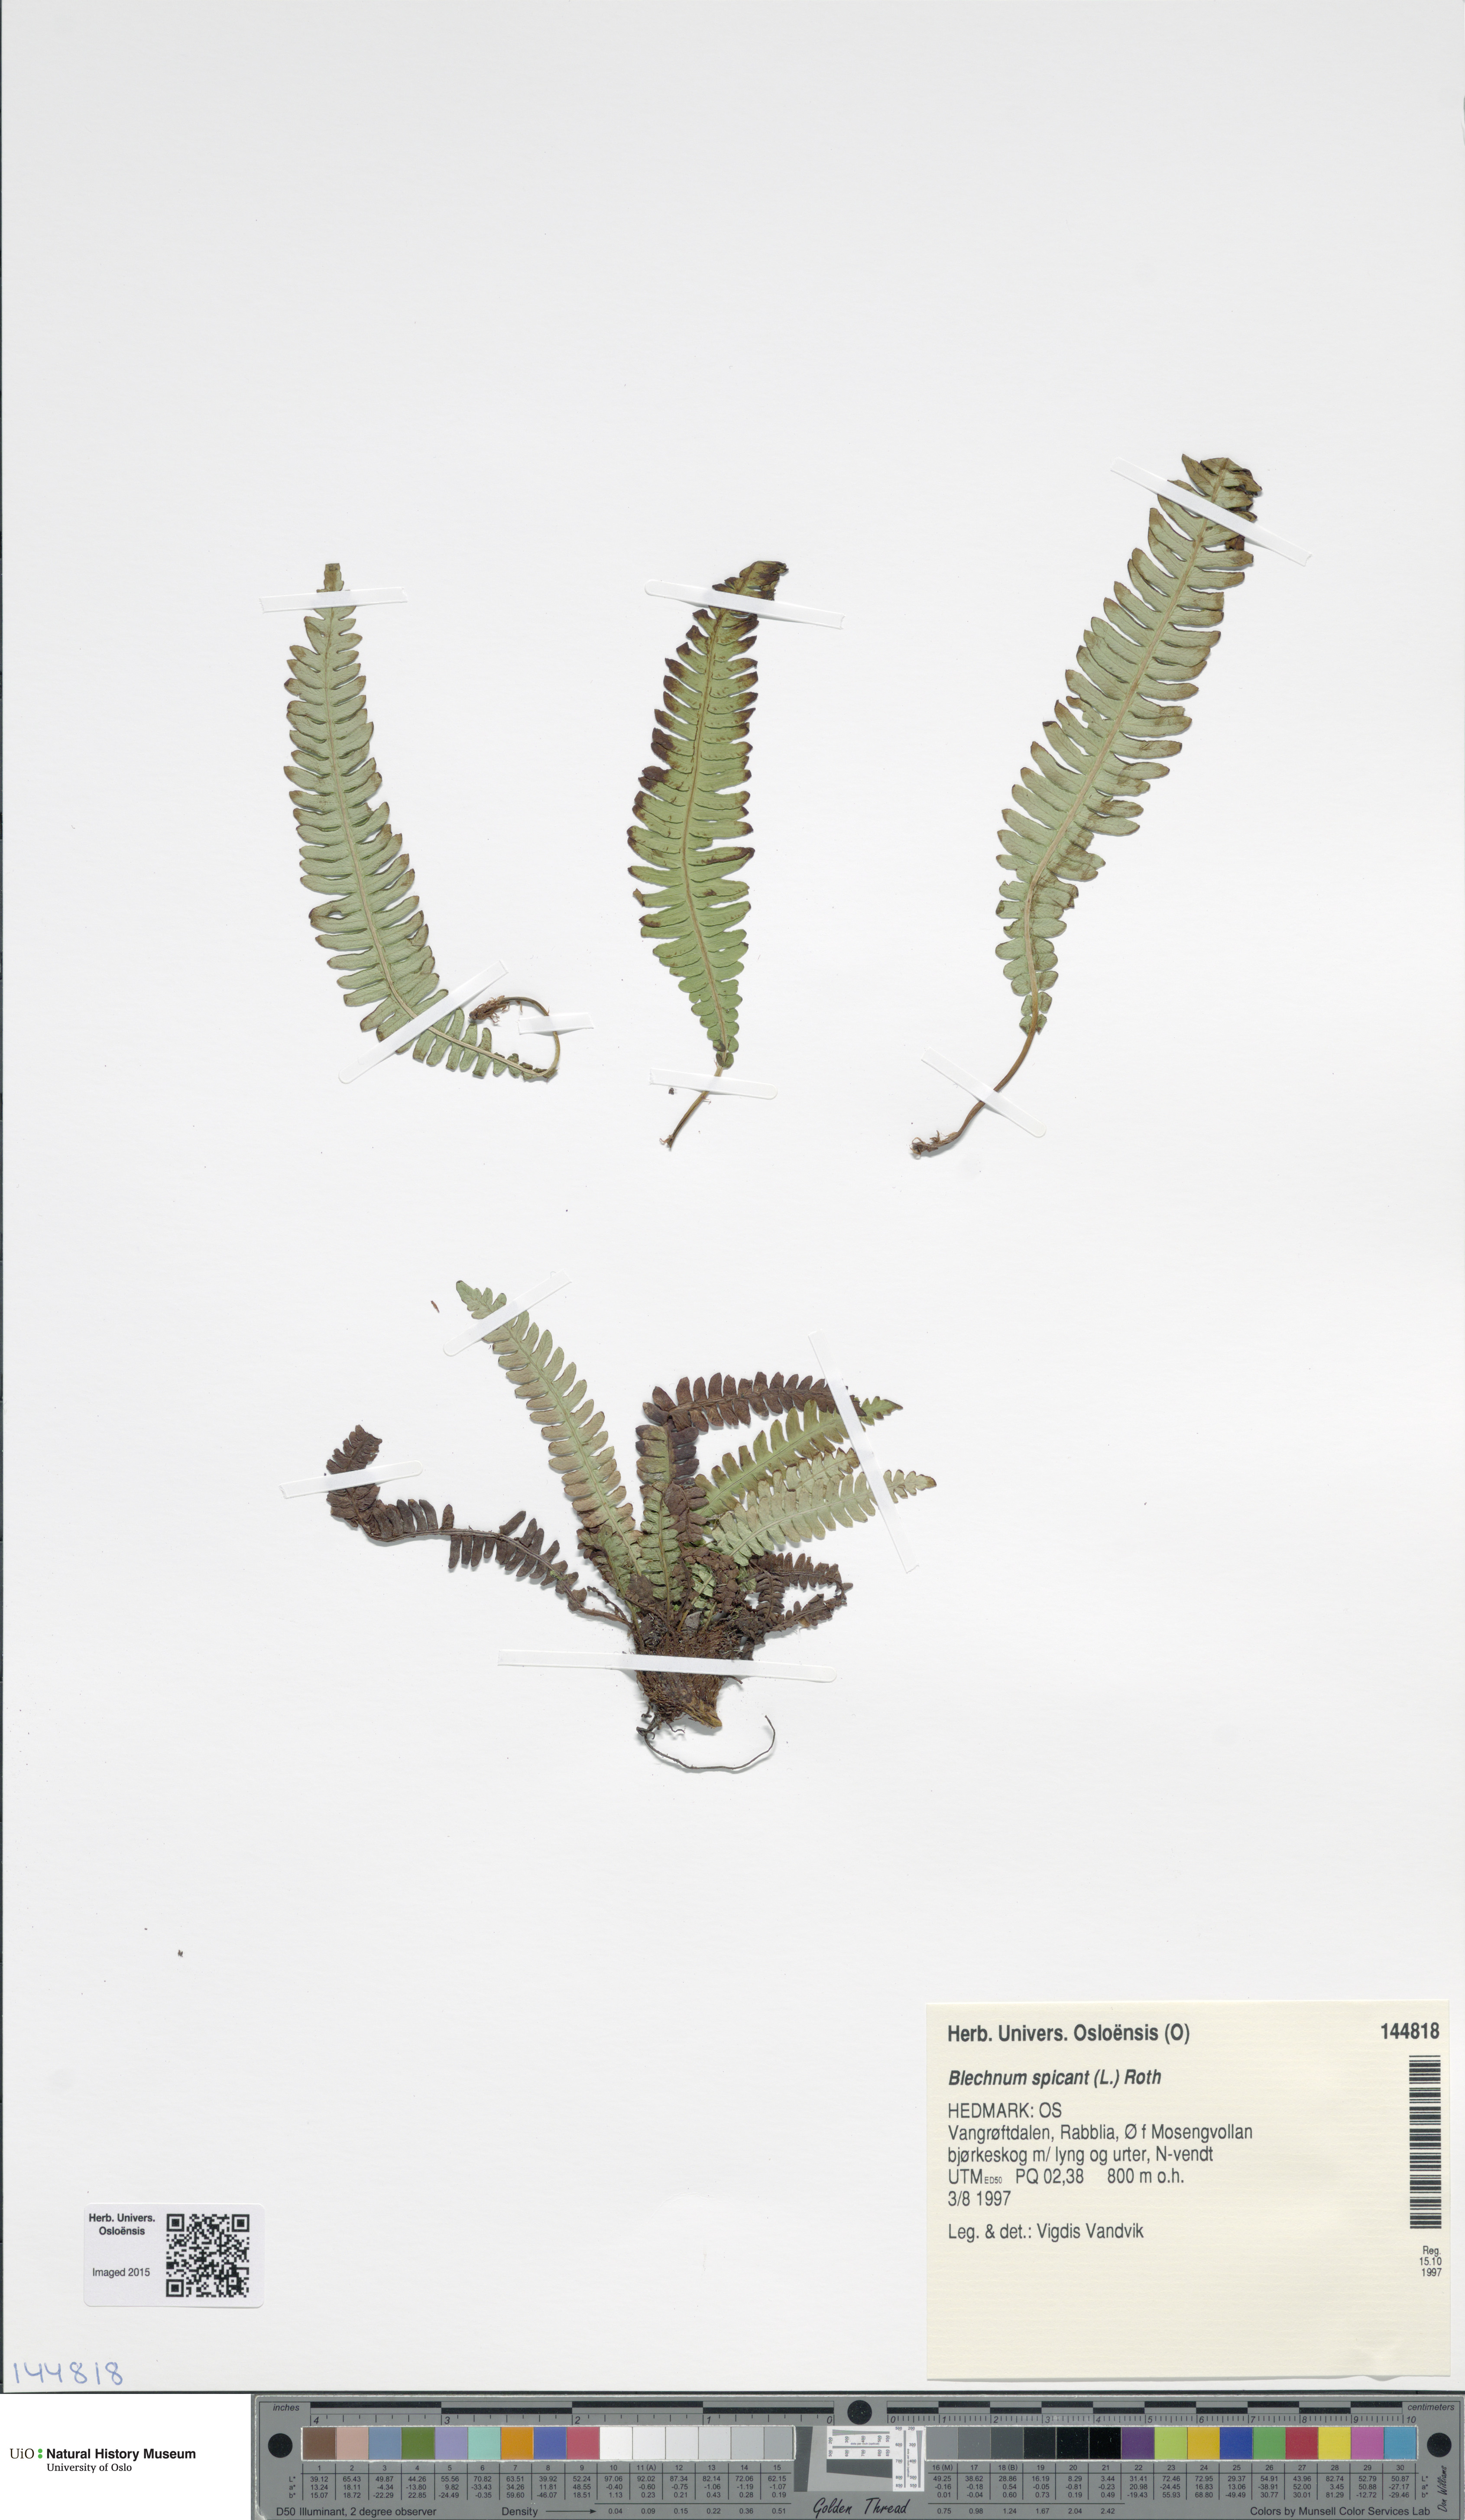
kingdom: Plantae
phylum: Tracheophyta
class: Polypodiopsida
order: Polypodiales
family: Blechnaceae
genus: Struthiopteris
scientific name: Struthiopteris spicant
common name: Deer fern
